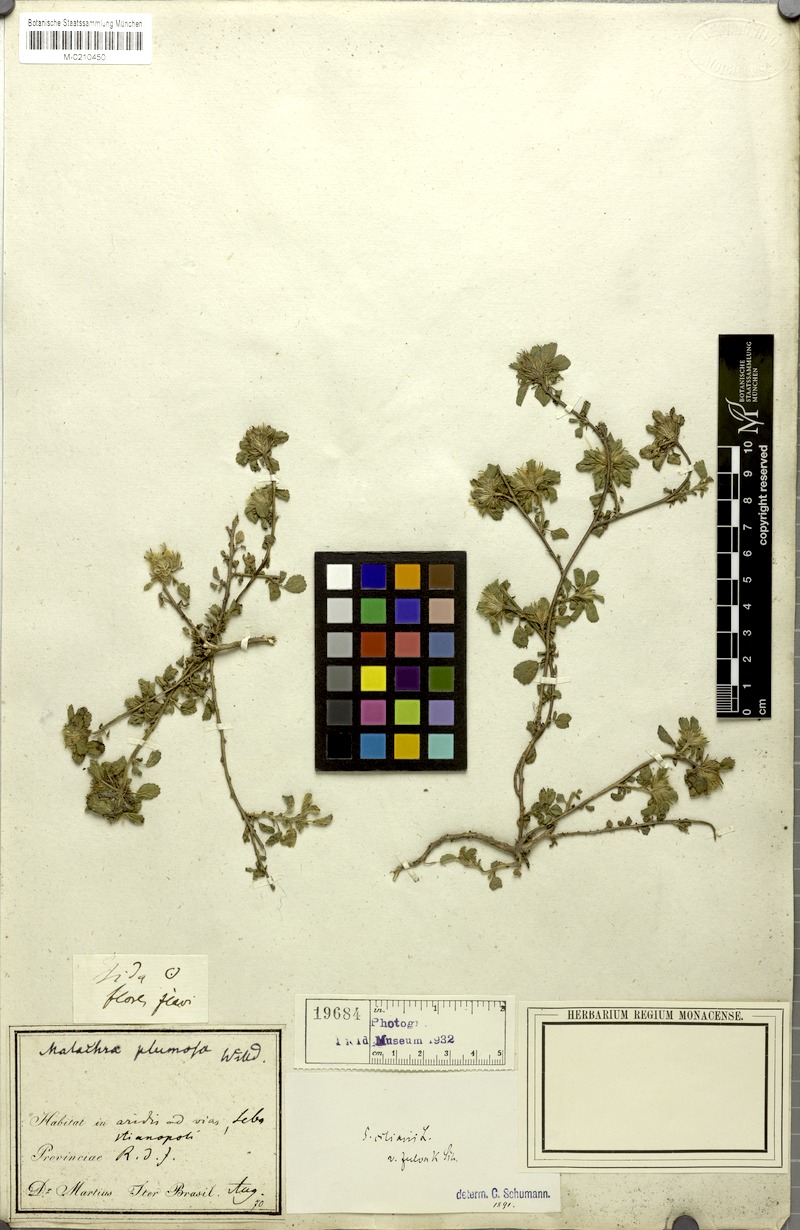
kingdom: Plantae
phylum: Tracheophyta
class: Magnoliopsida
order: Malvales
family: Malvaceae
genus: Sida
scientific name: Sida ciliaris
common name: Bracted fanpetals
